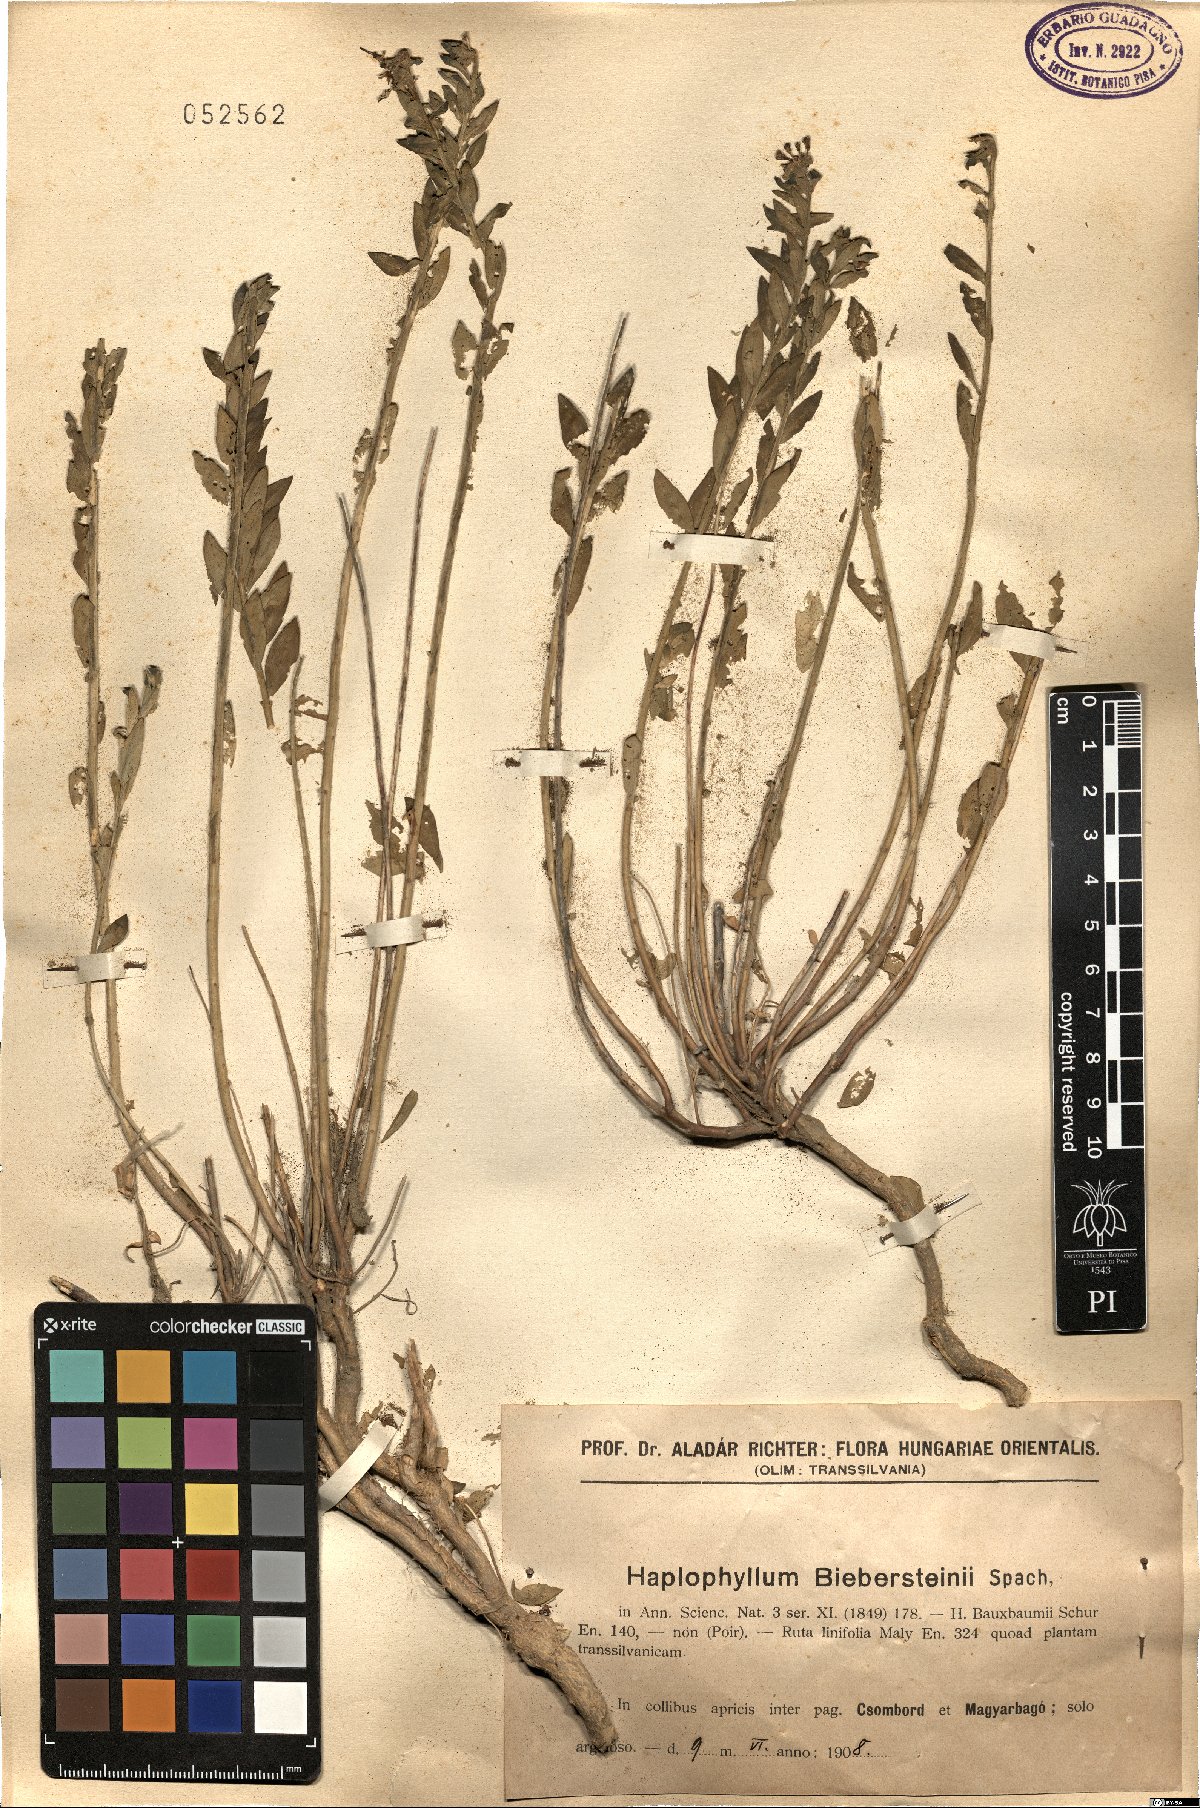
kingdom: Plantae
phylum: Tracheophyta
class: Magnoliopsida
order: Sapindales
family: Rutaceae
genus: Haplophyllum
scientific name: Haplophyllum buxbaumii
